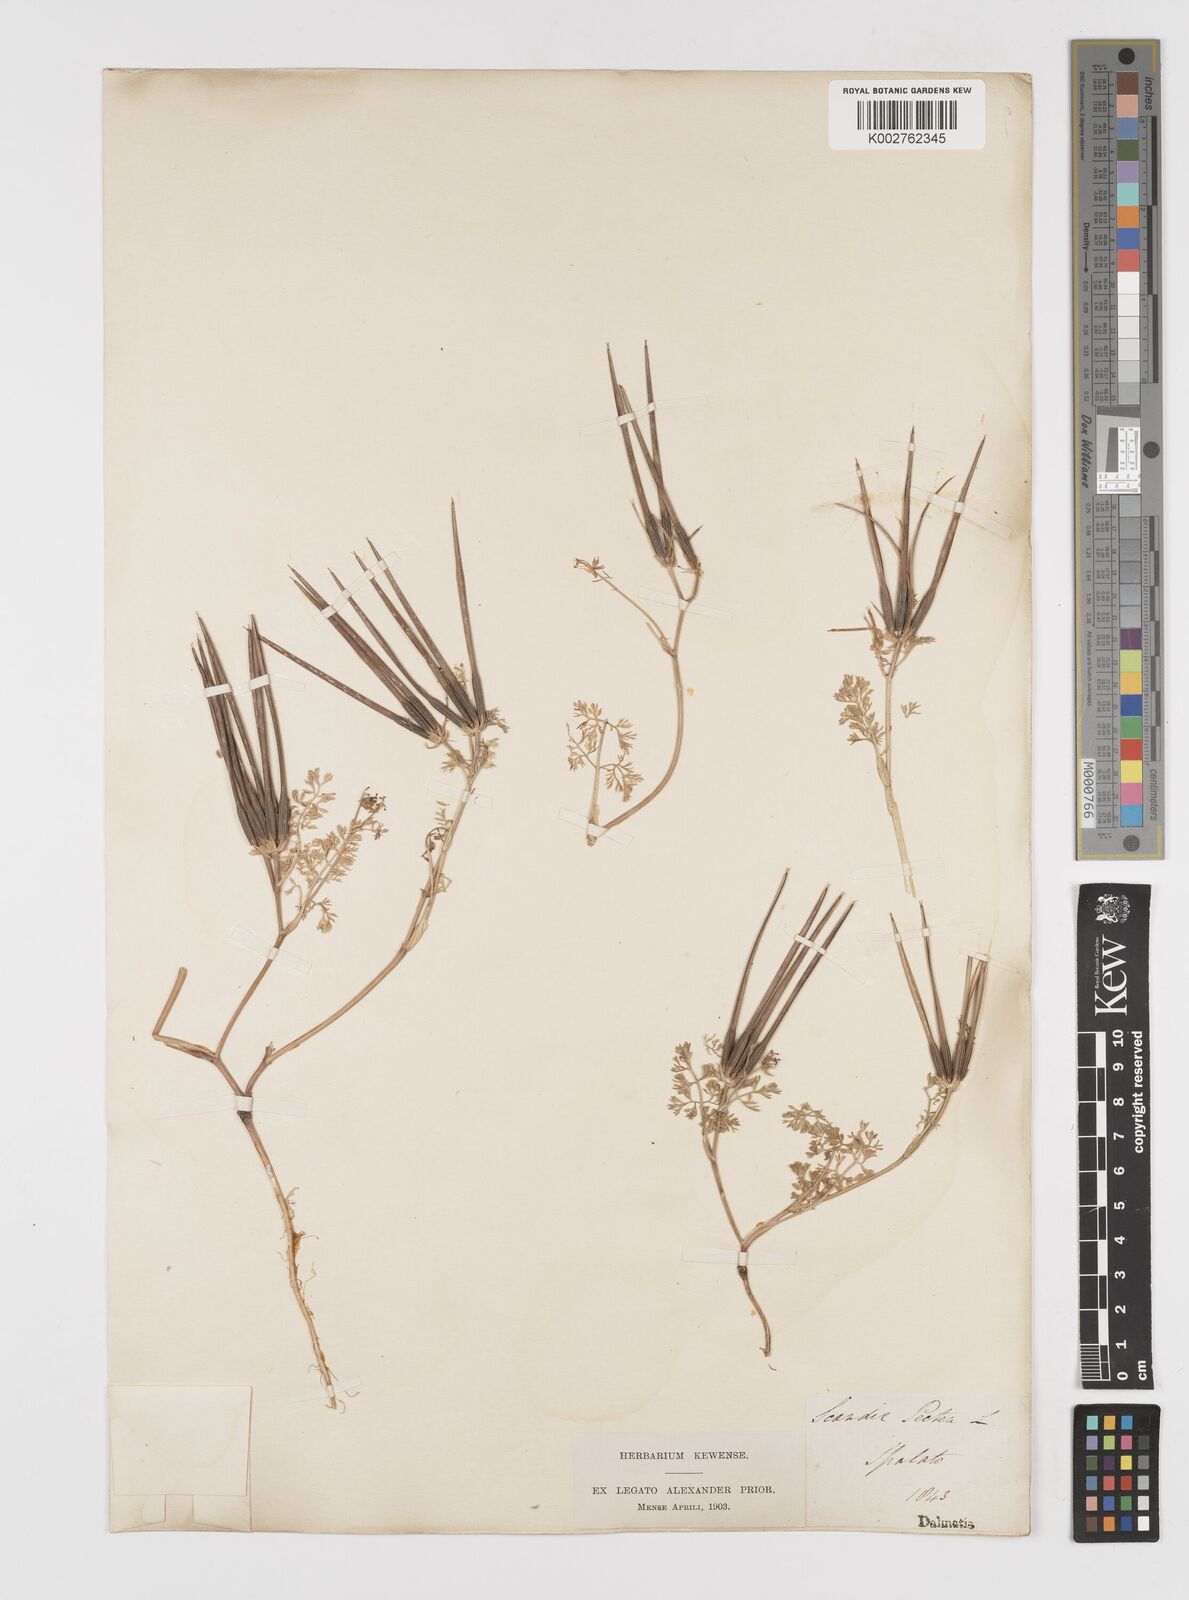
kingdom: Plantae
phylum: Tracheophyta
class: Magnoliopsida
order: Apiales
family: Apiaceae
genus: Scandix
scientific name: Scandix pecten-veneris
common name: Shepherd's-needle
